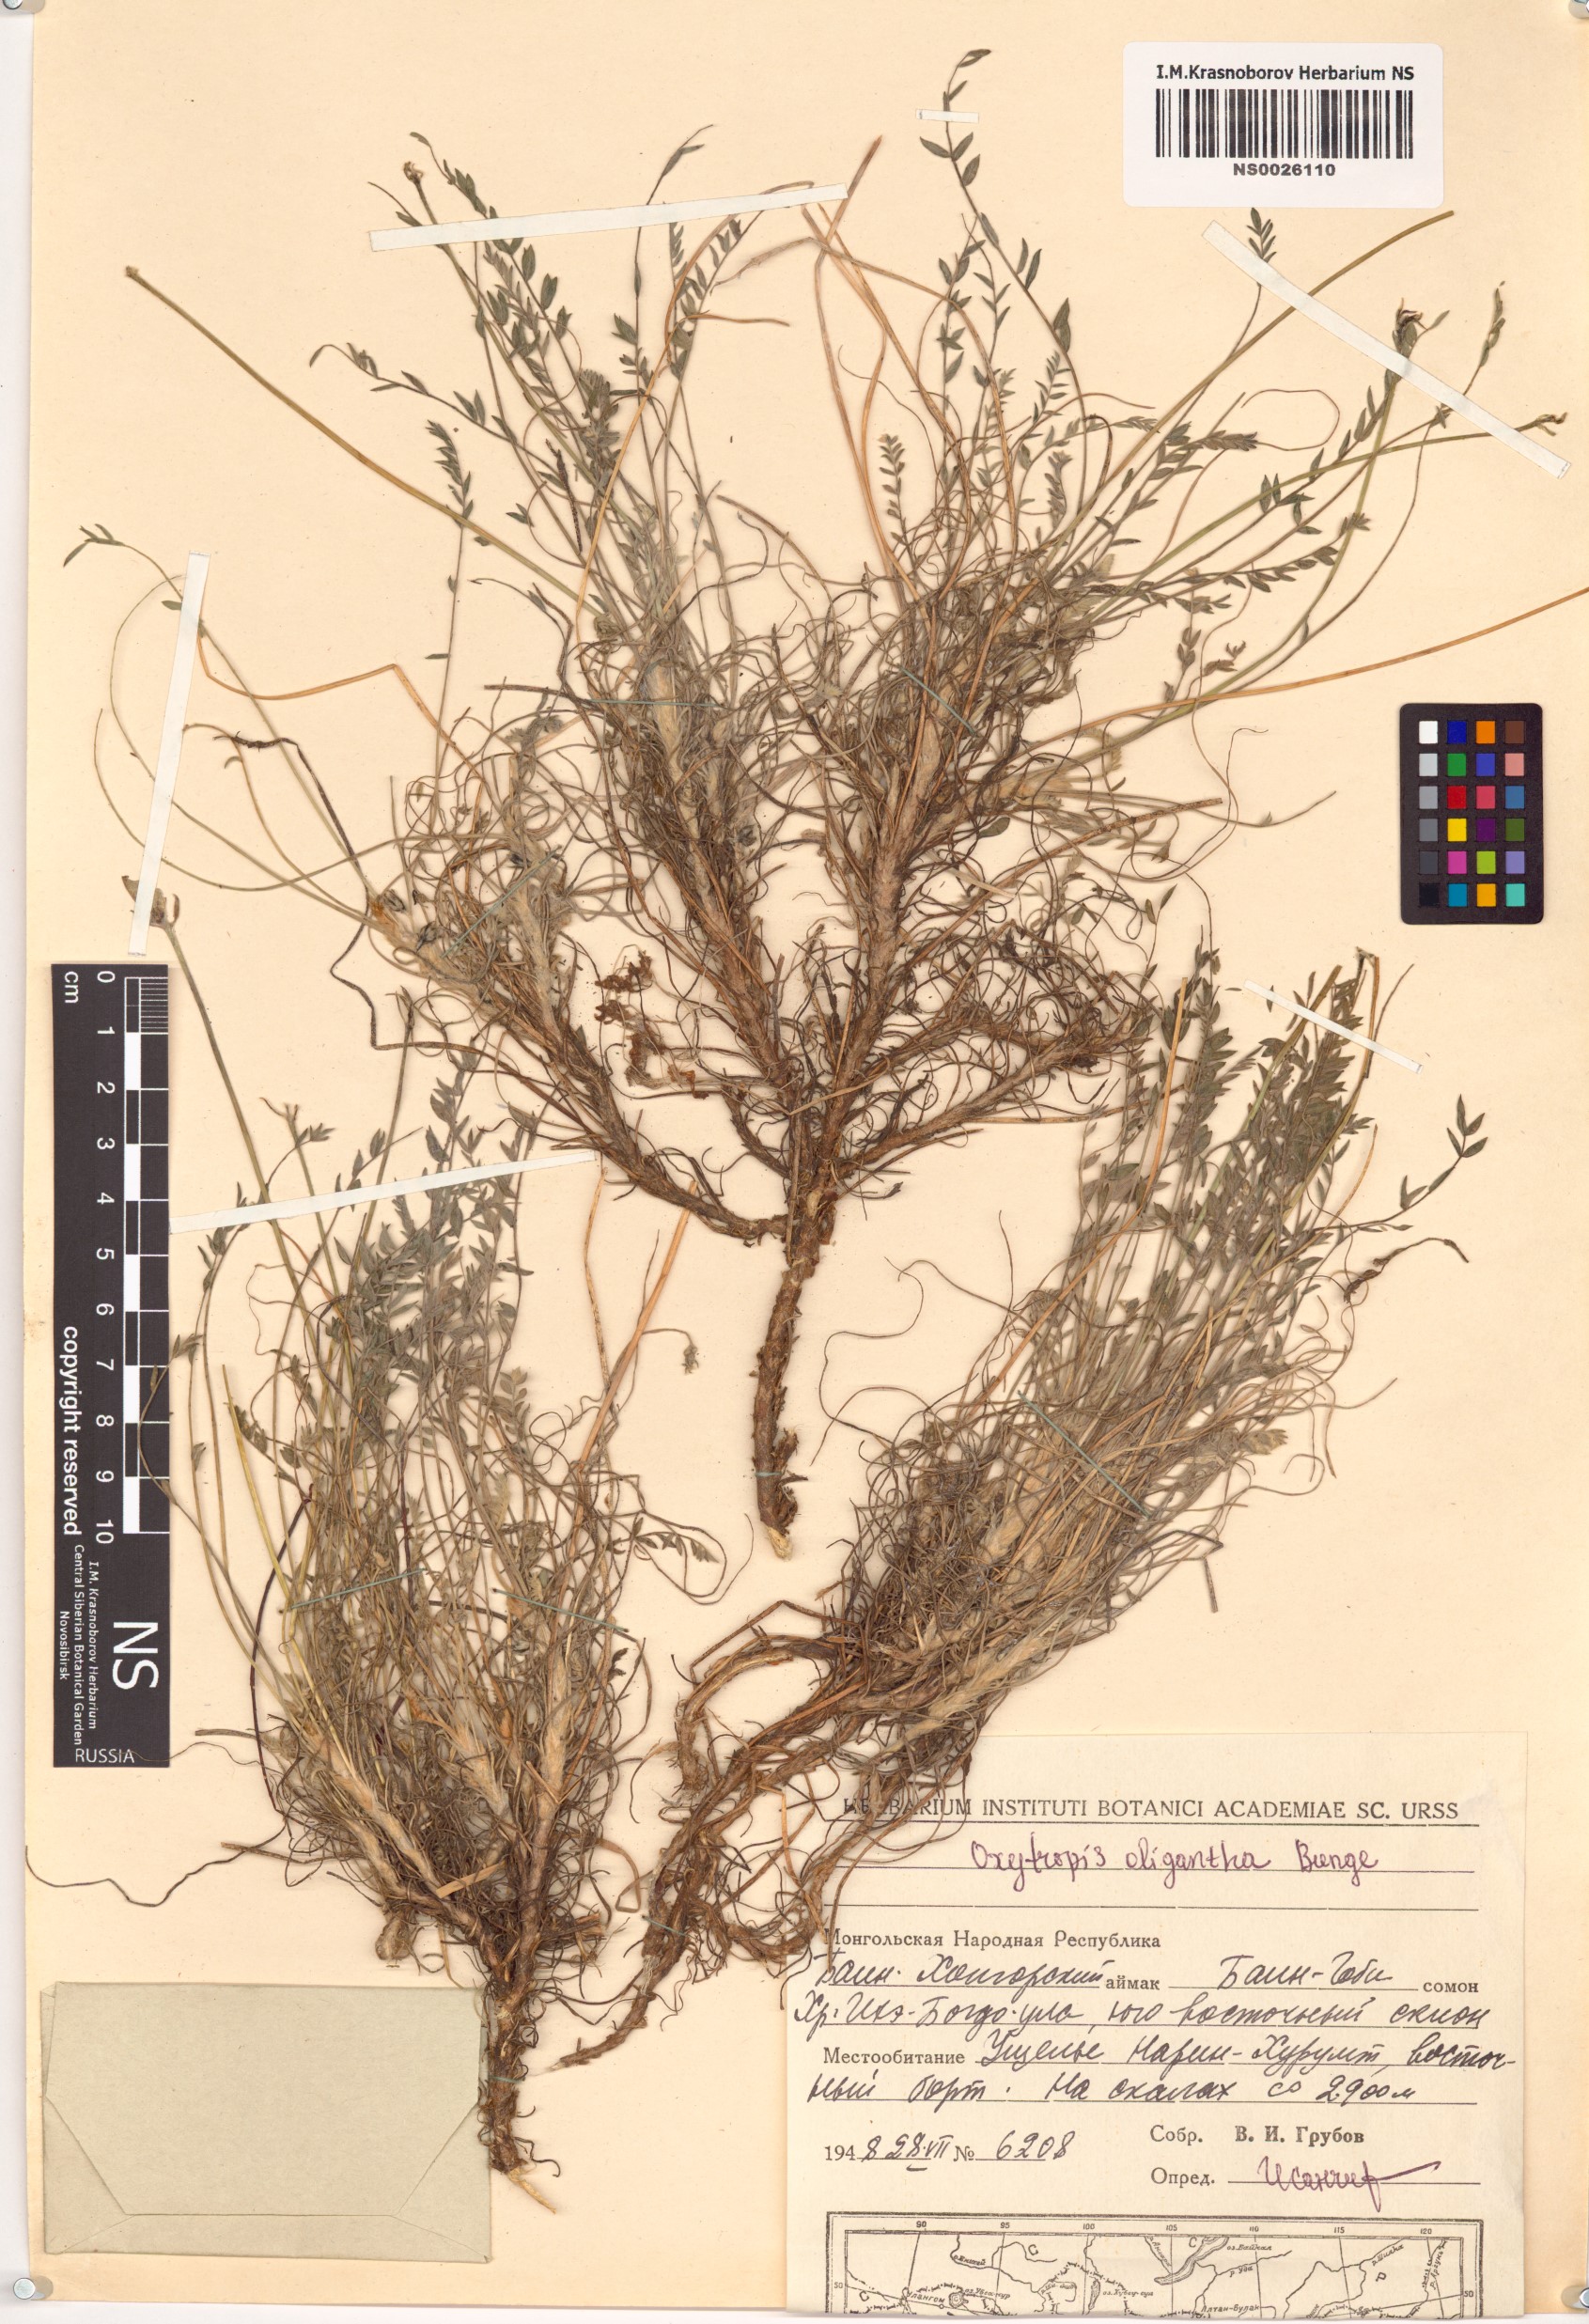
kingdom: Plantae
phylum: Tracheophyta
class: Magnoliopsida
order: Fabales
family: Fabaceae
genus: Oxytropis
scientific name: Oxytropis oligantha
